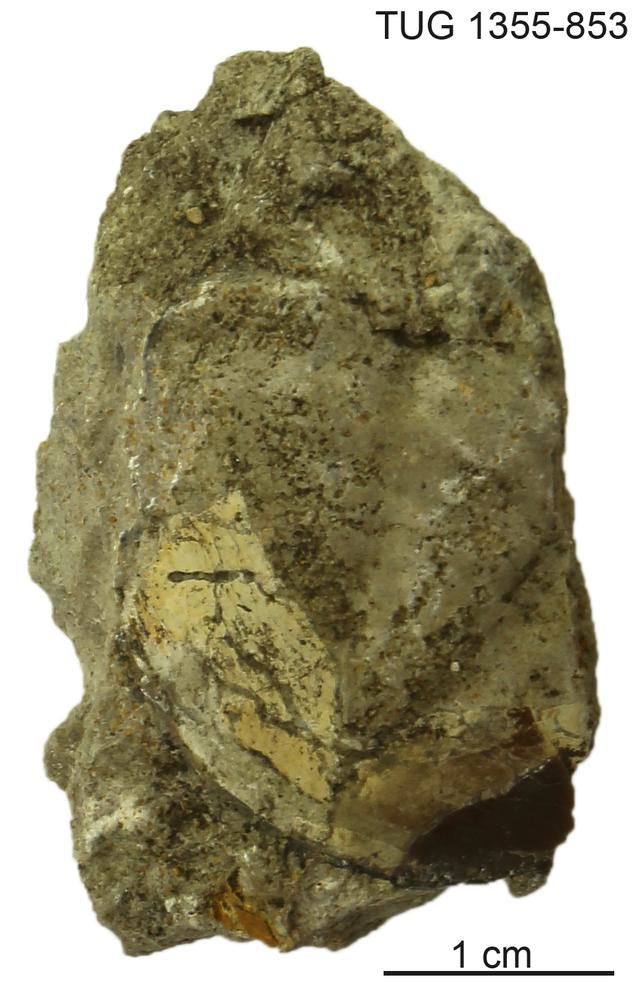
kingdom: Animalia
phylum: Arthropoda
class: Trilobita
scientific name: Trilobita
